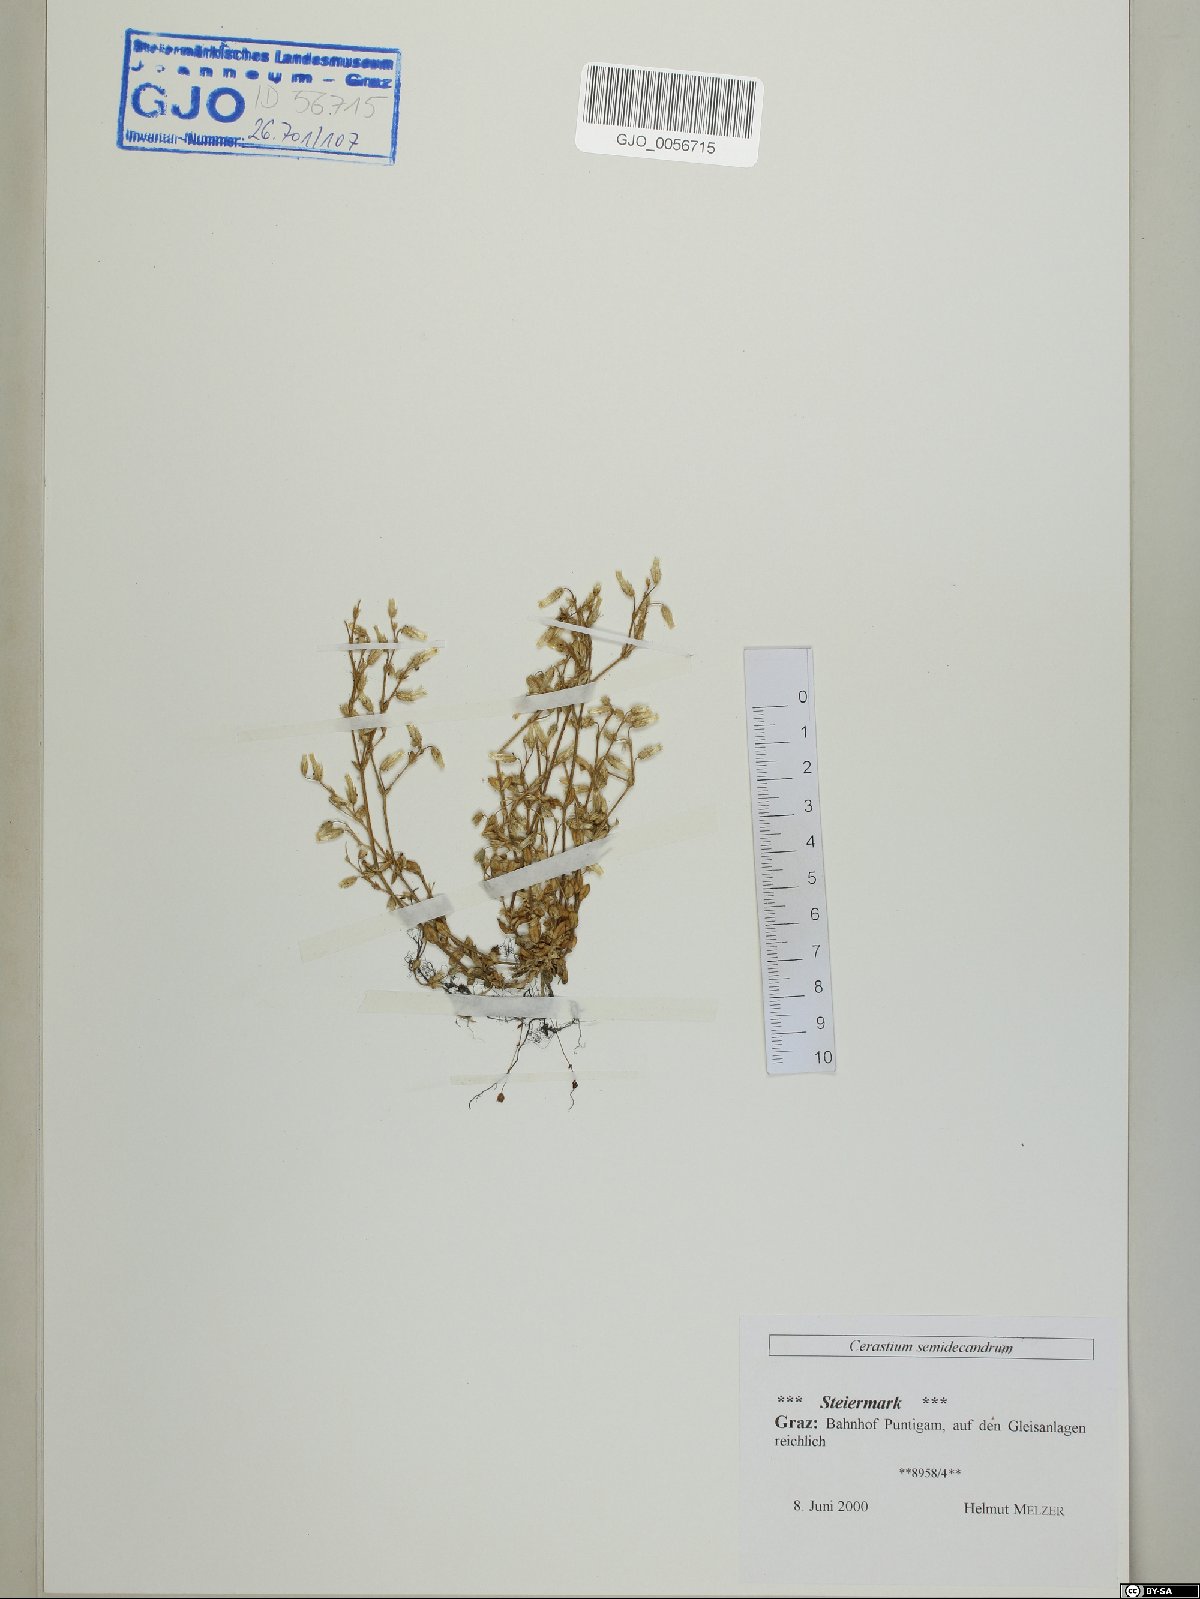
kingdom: Plantae
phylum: Tracheophyta
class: Magnoliopsida
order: Caryophyllales
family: Caryophyllaceae
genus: Cerastium
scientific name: Cerastium semidecandrum
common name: Little mouse-ear
